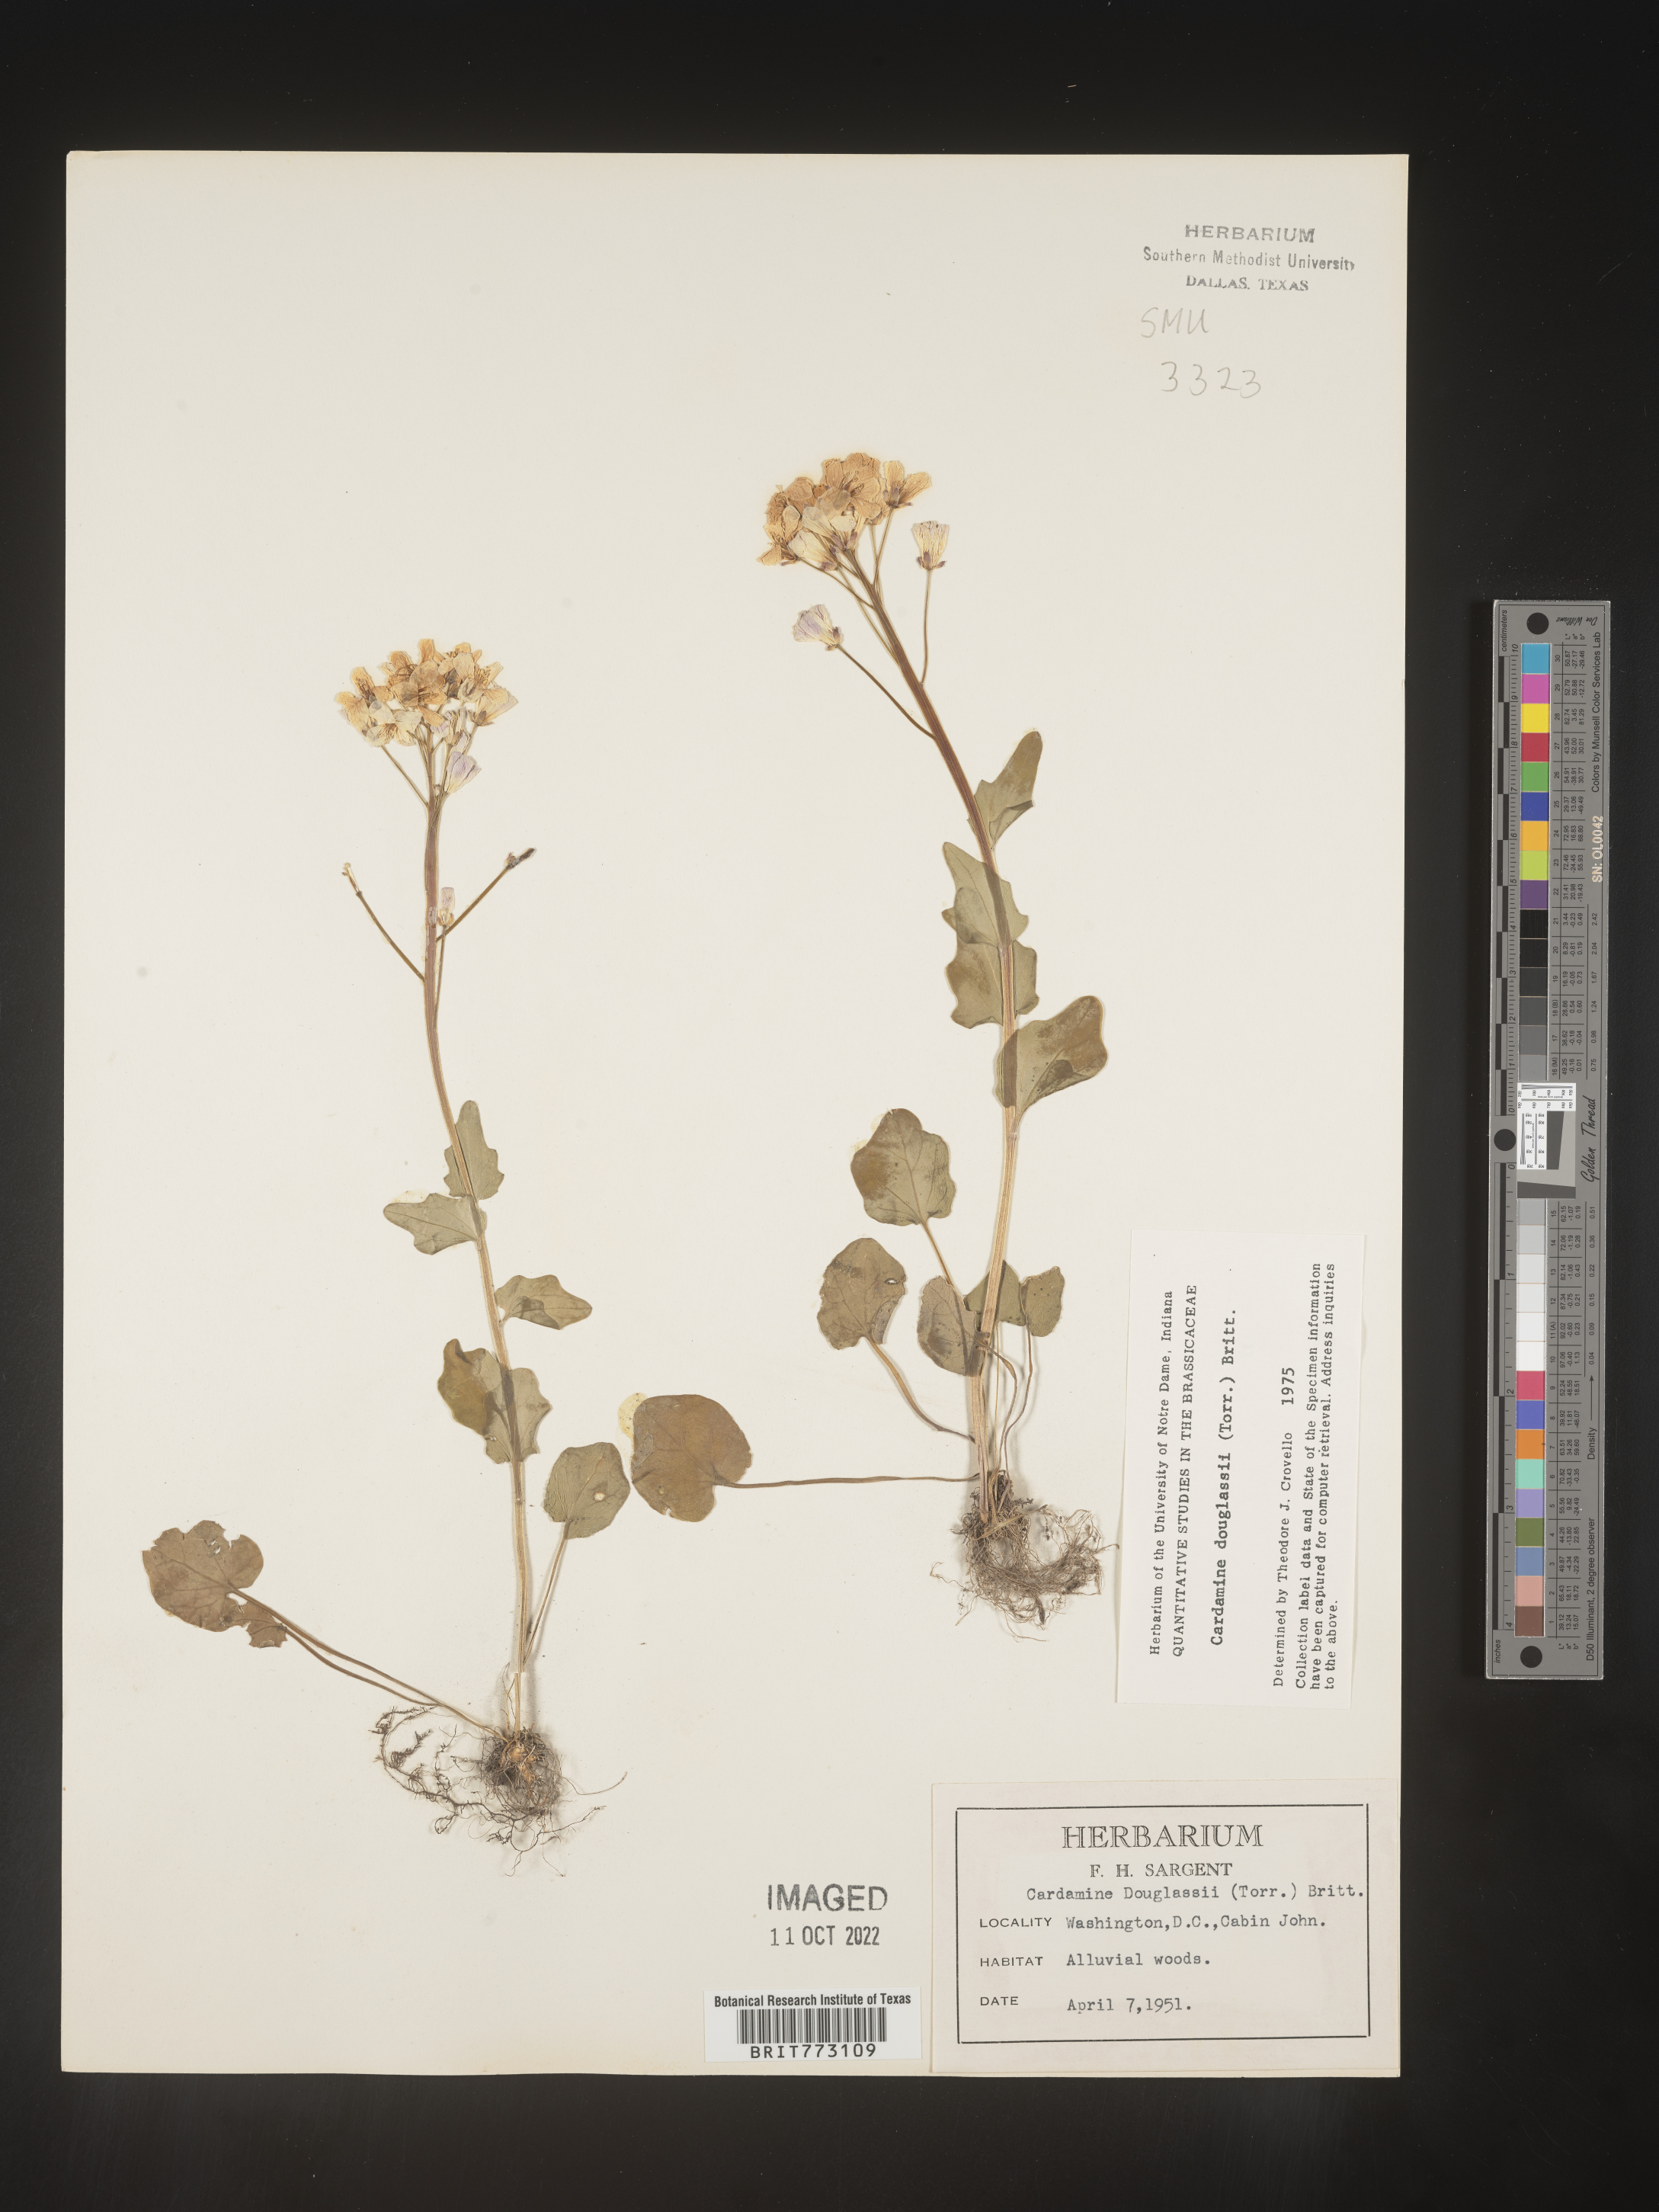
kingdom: Plantae
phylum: Tracheophyta
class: Magnoliopsida
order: Brassicales
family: Brassicaceae
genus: Cardamine
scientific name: Cardamine
